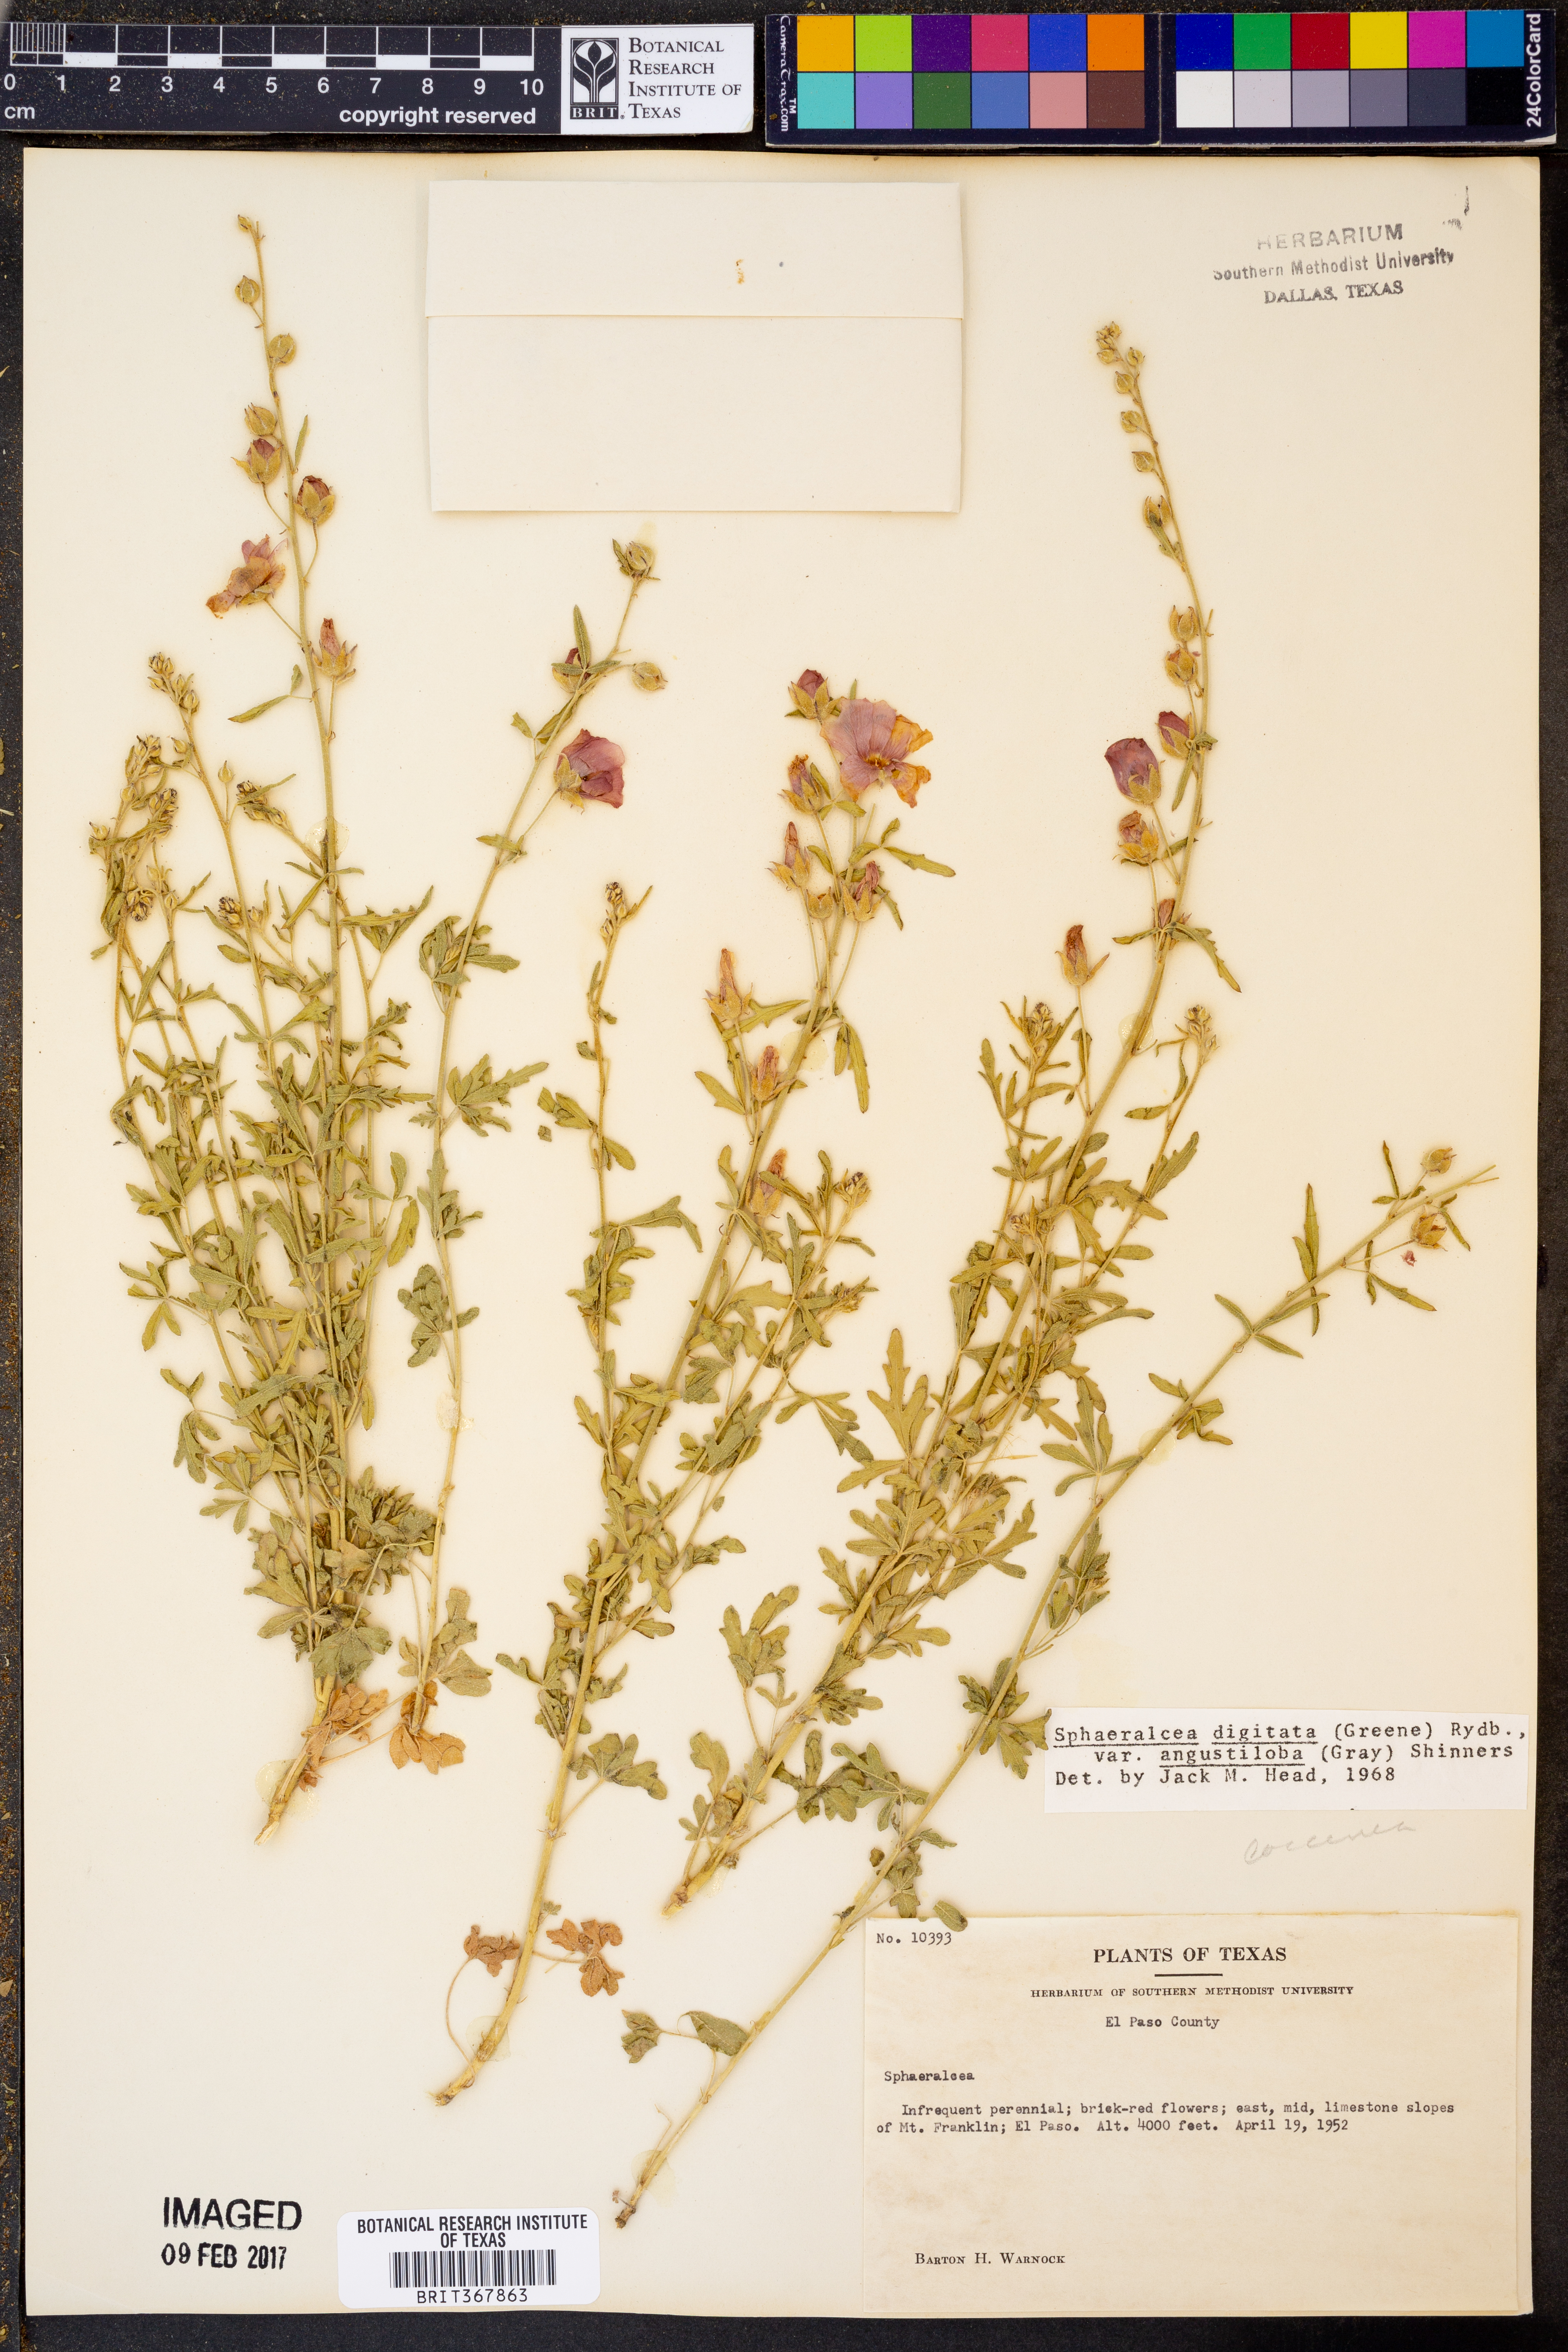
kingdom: Plantae
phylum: Tracheophyta
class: Magnoliopsida
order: Malvales
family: Malvaceae
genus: Sphaeralcea
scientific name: Sphaeralcea digitata
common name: Juniper-gobe-mallow
